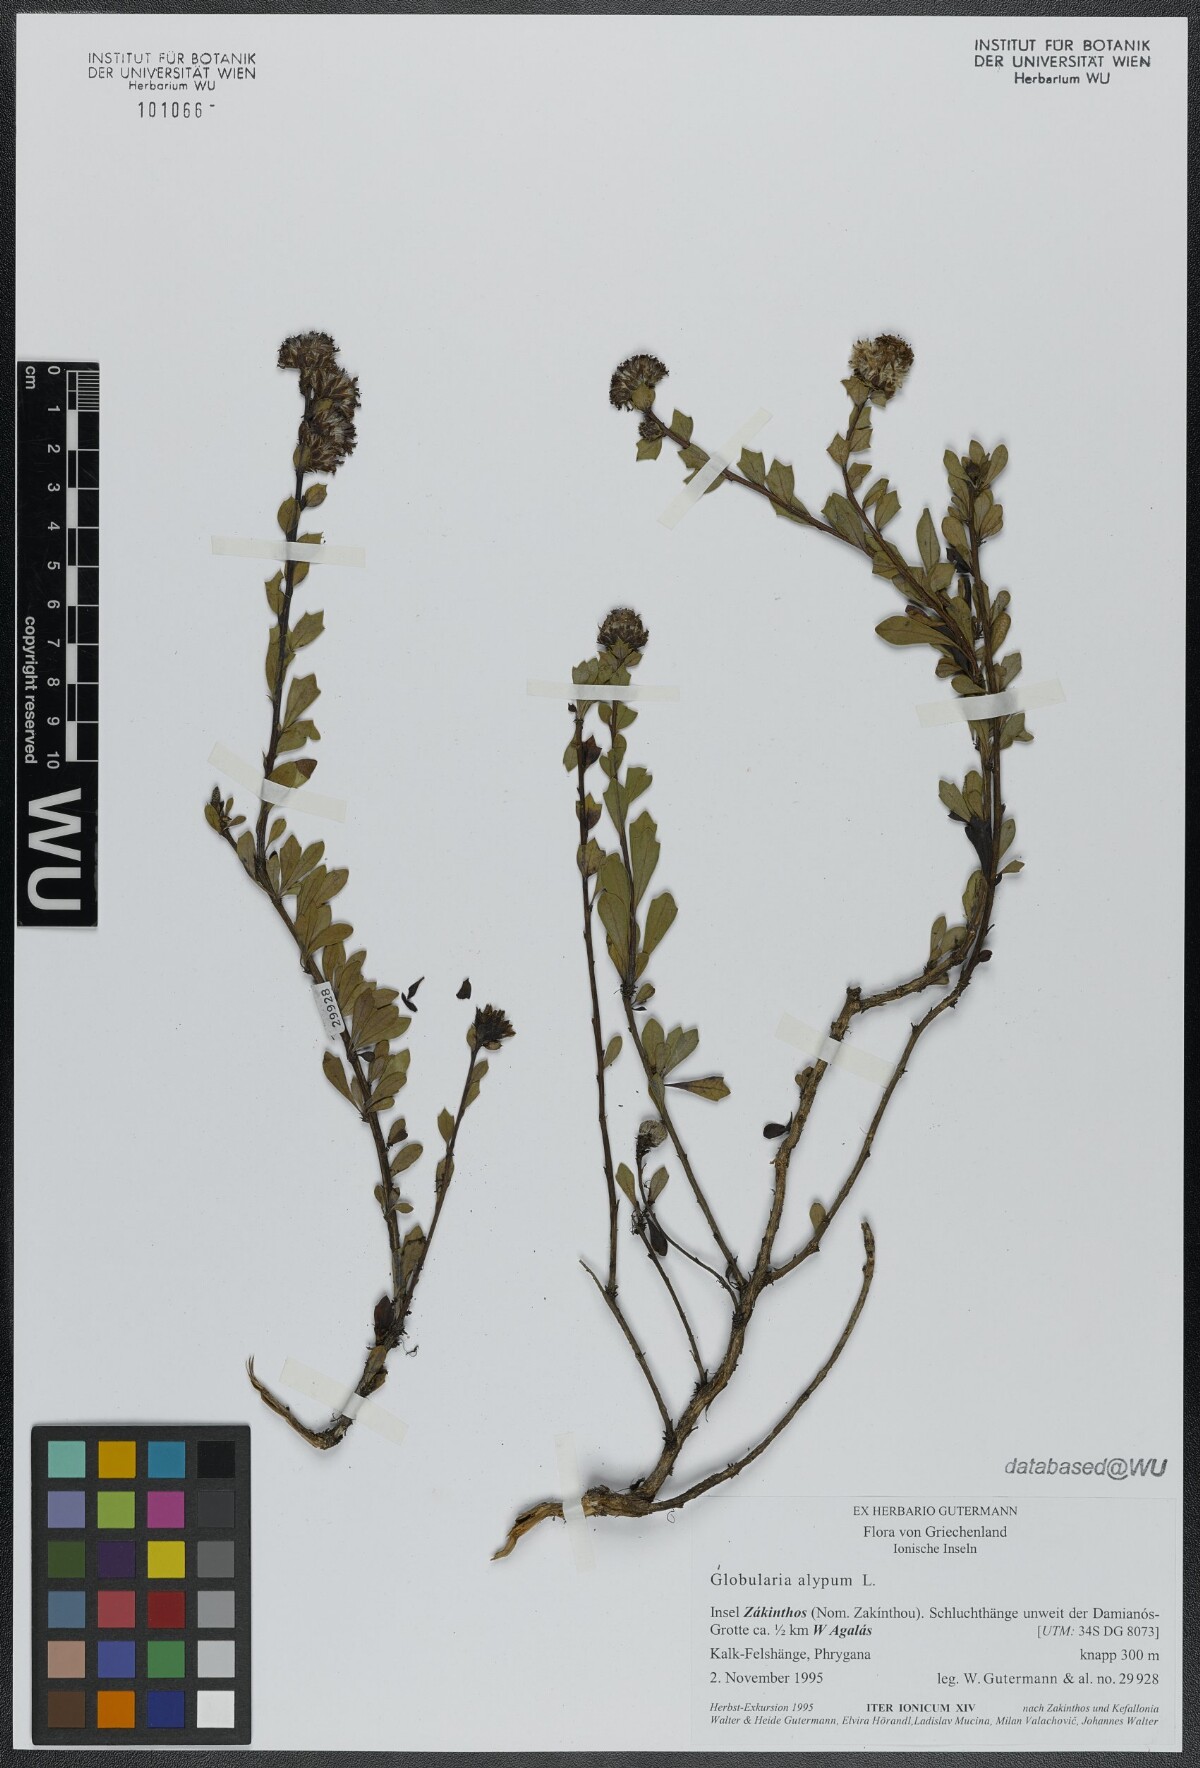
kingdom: Plantae
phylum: Tracheophyta
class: Magnoliopsida
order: Lamiales
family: Plantaginaceae
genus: Globularia
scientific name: Globularia alypum
